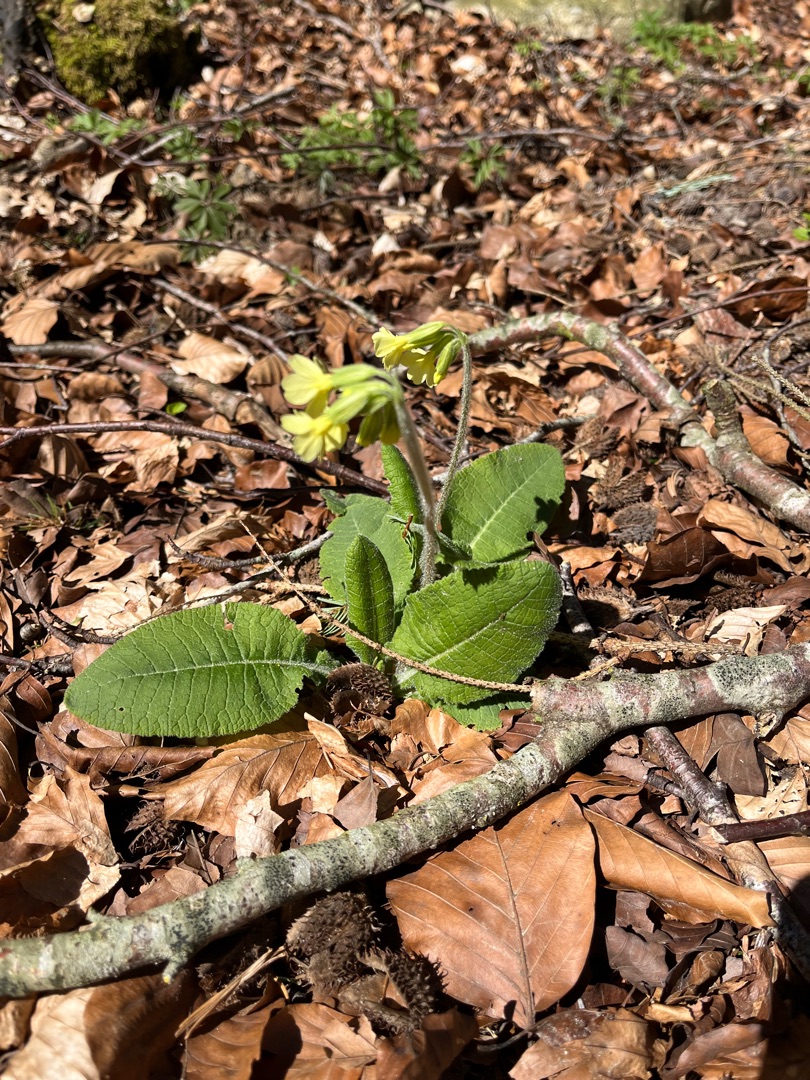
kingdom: Plantae
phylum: Tracheophyta
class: Magnoliopsida
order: Ericales
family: Primulaceae
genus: Primula
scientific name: Primula elatior
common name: Fladkravet kodriver
